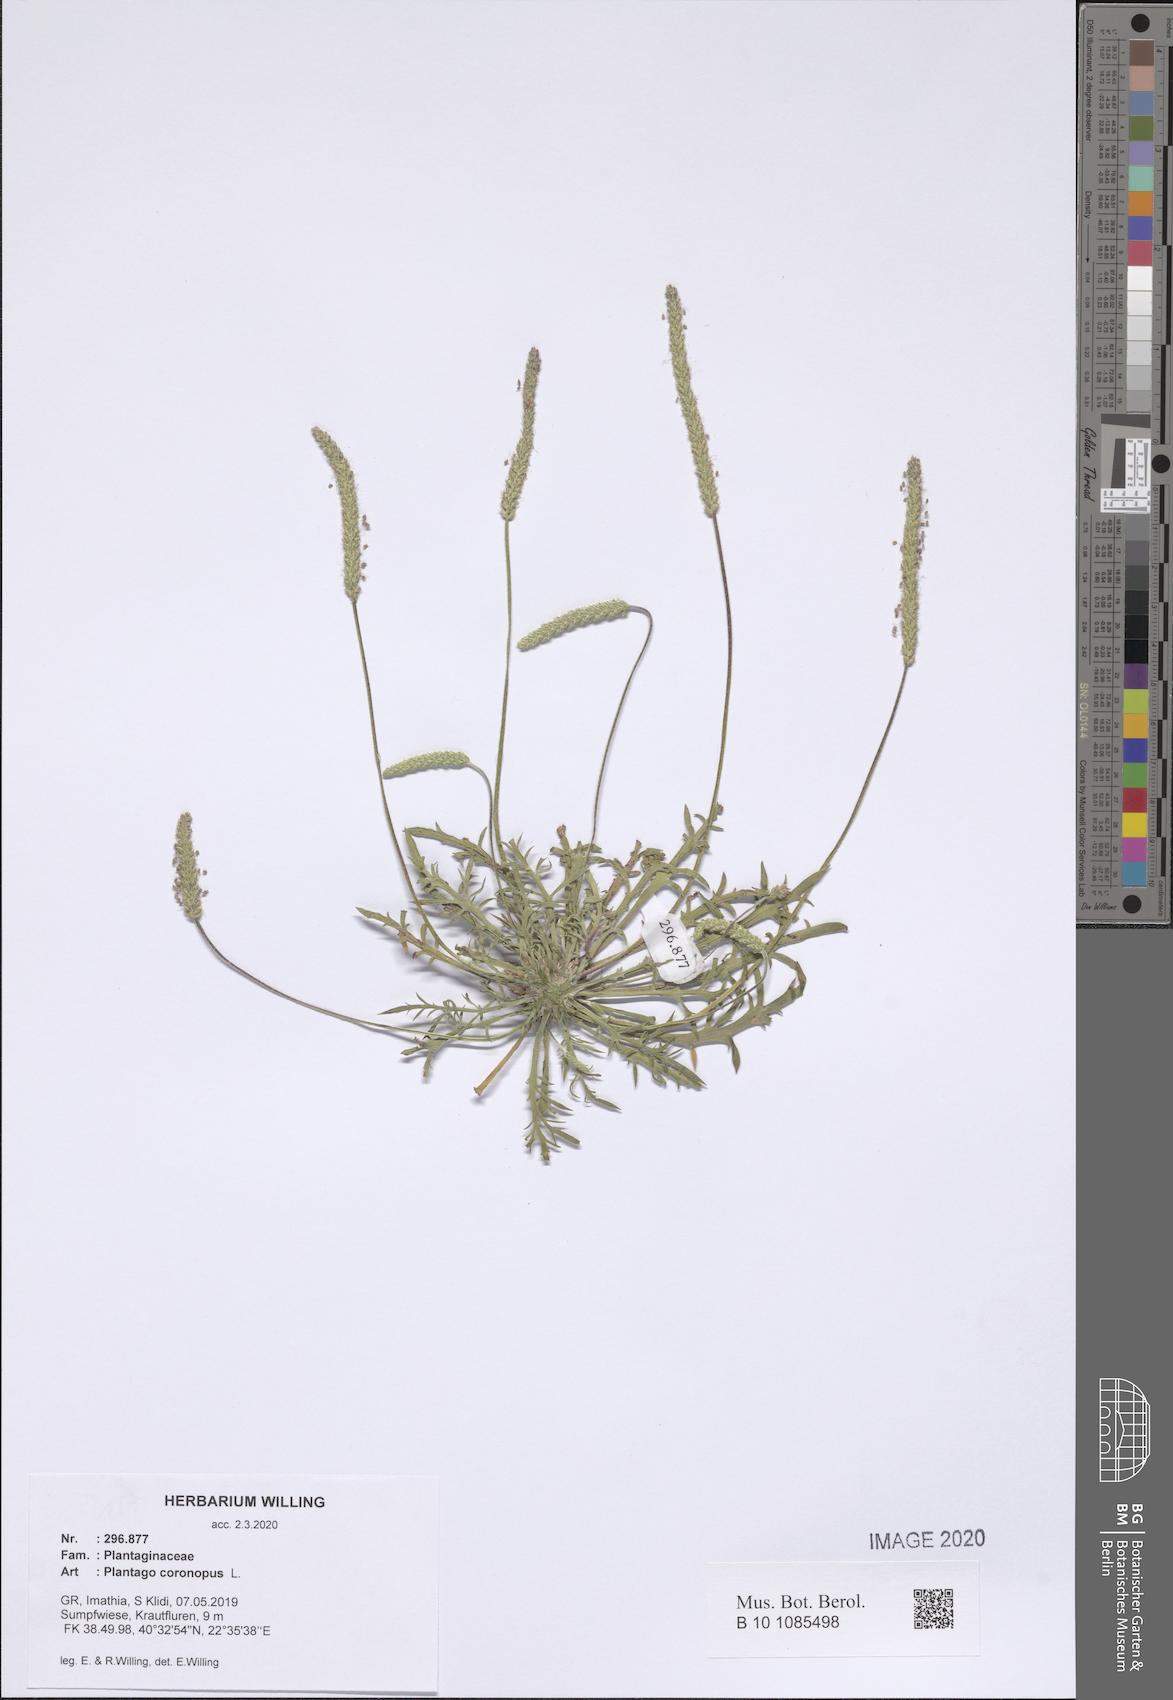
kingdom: Plantae
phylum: Tracheophyta
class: Magnoliopsida
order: Lamiales
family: Plantaginaceae
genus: Plantago
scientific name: Plantago coronopus
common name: Buck's-horn plantain
